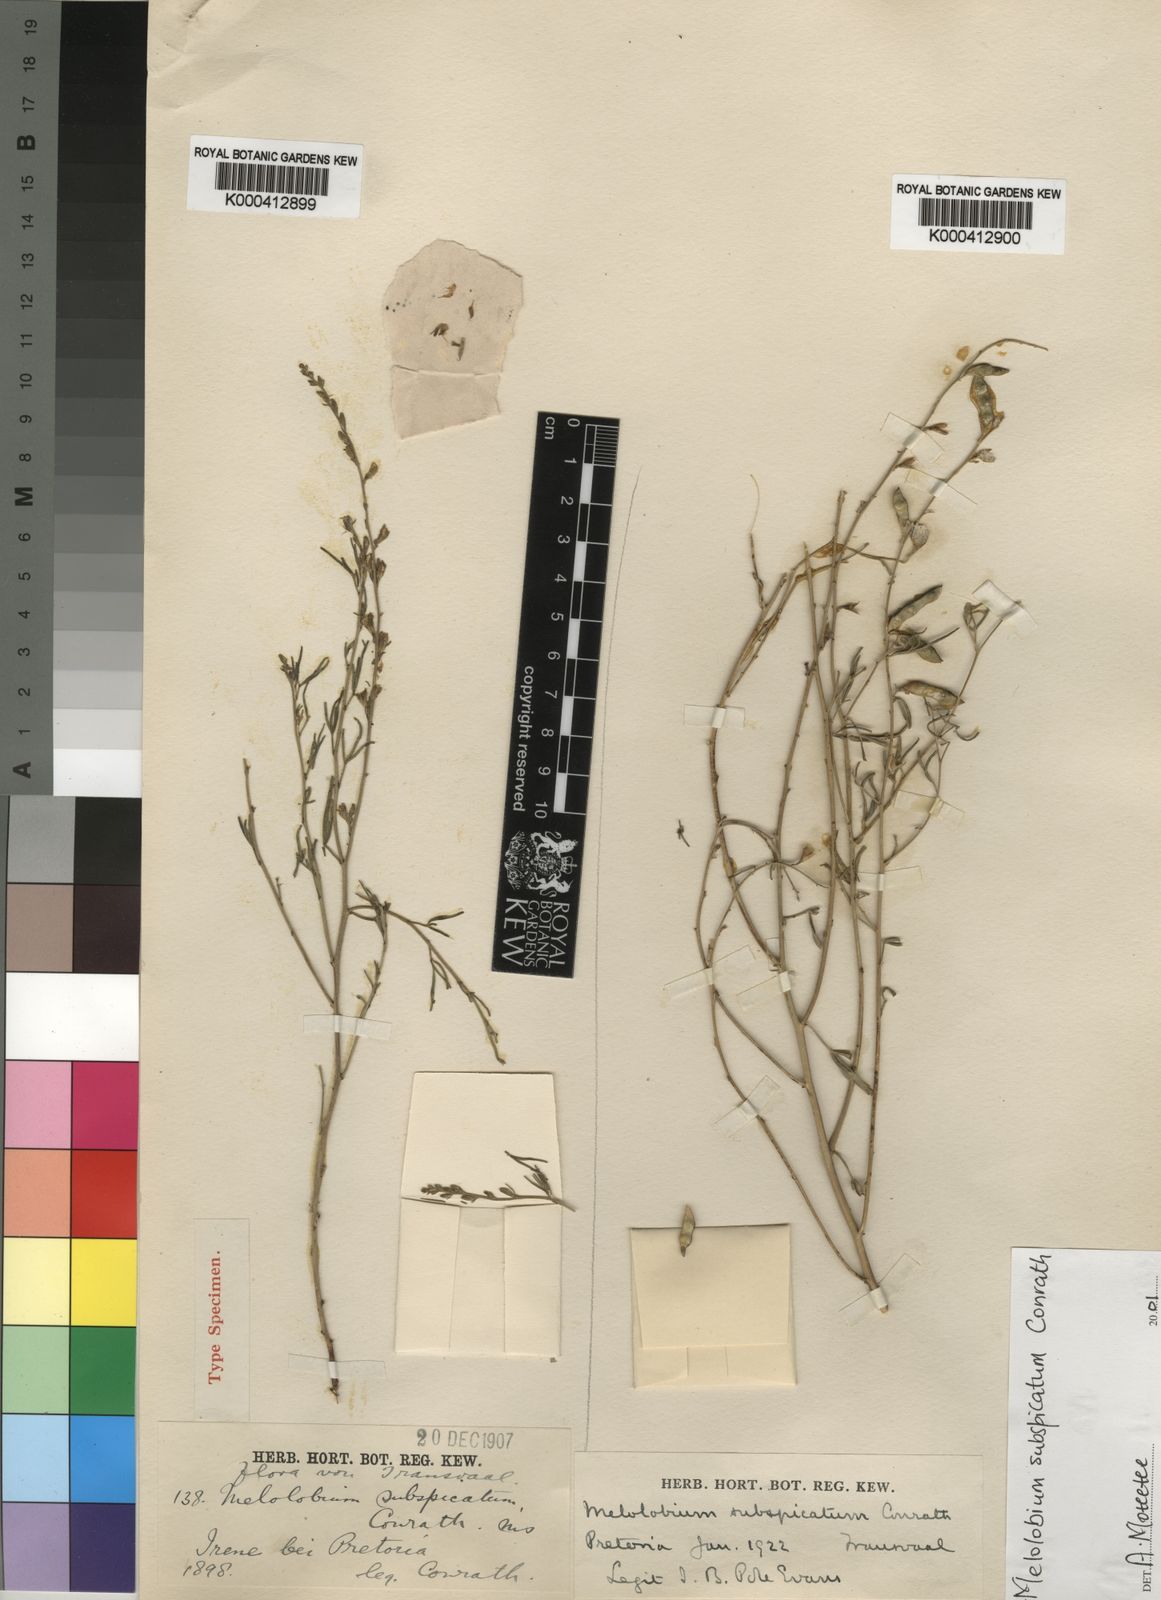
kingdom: Plantae
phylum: Tracheophyta
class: Magnoliopsida
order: Fabales
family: Fabaceae
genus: Melolobium
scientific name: Melolobium subspicatum
